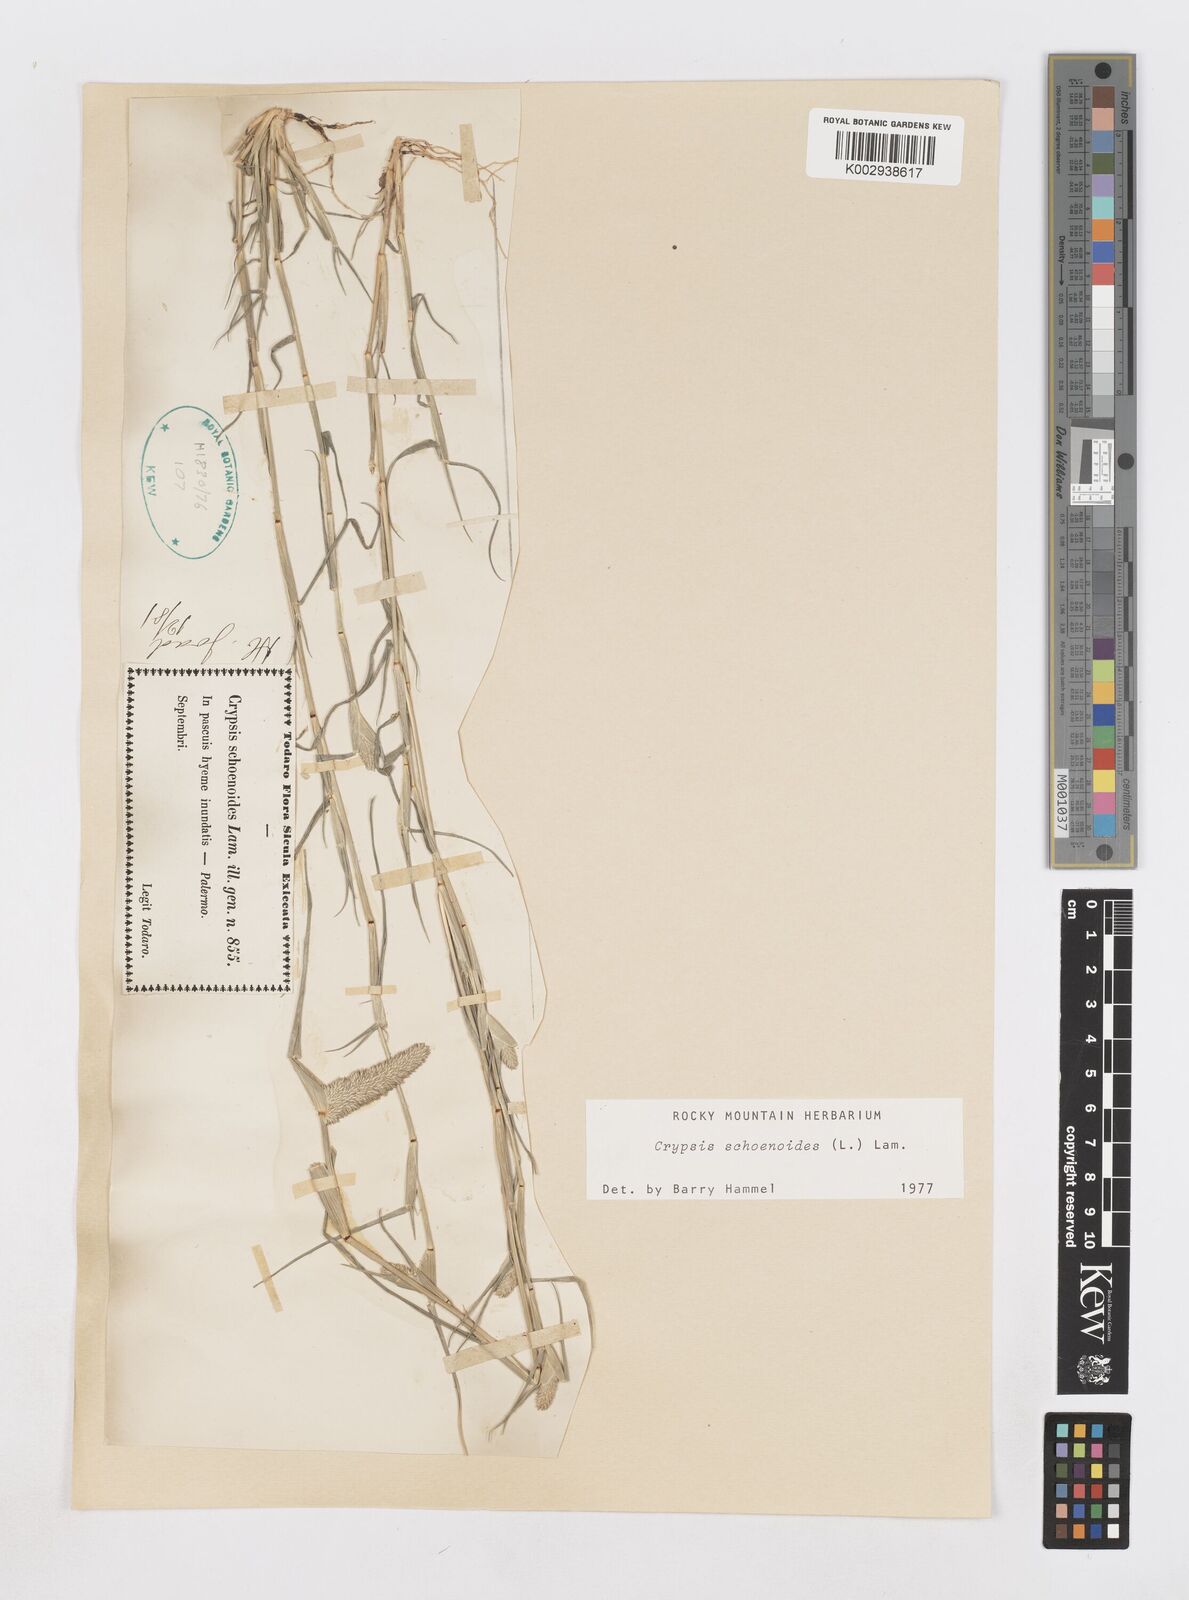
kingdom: Plantae
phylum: Tracheophyta
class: Liliopsida
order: Poales
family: Poaceae
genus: Sporobolus
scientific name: Sporobolus schoenoides
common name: Rush-like timothy
